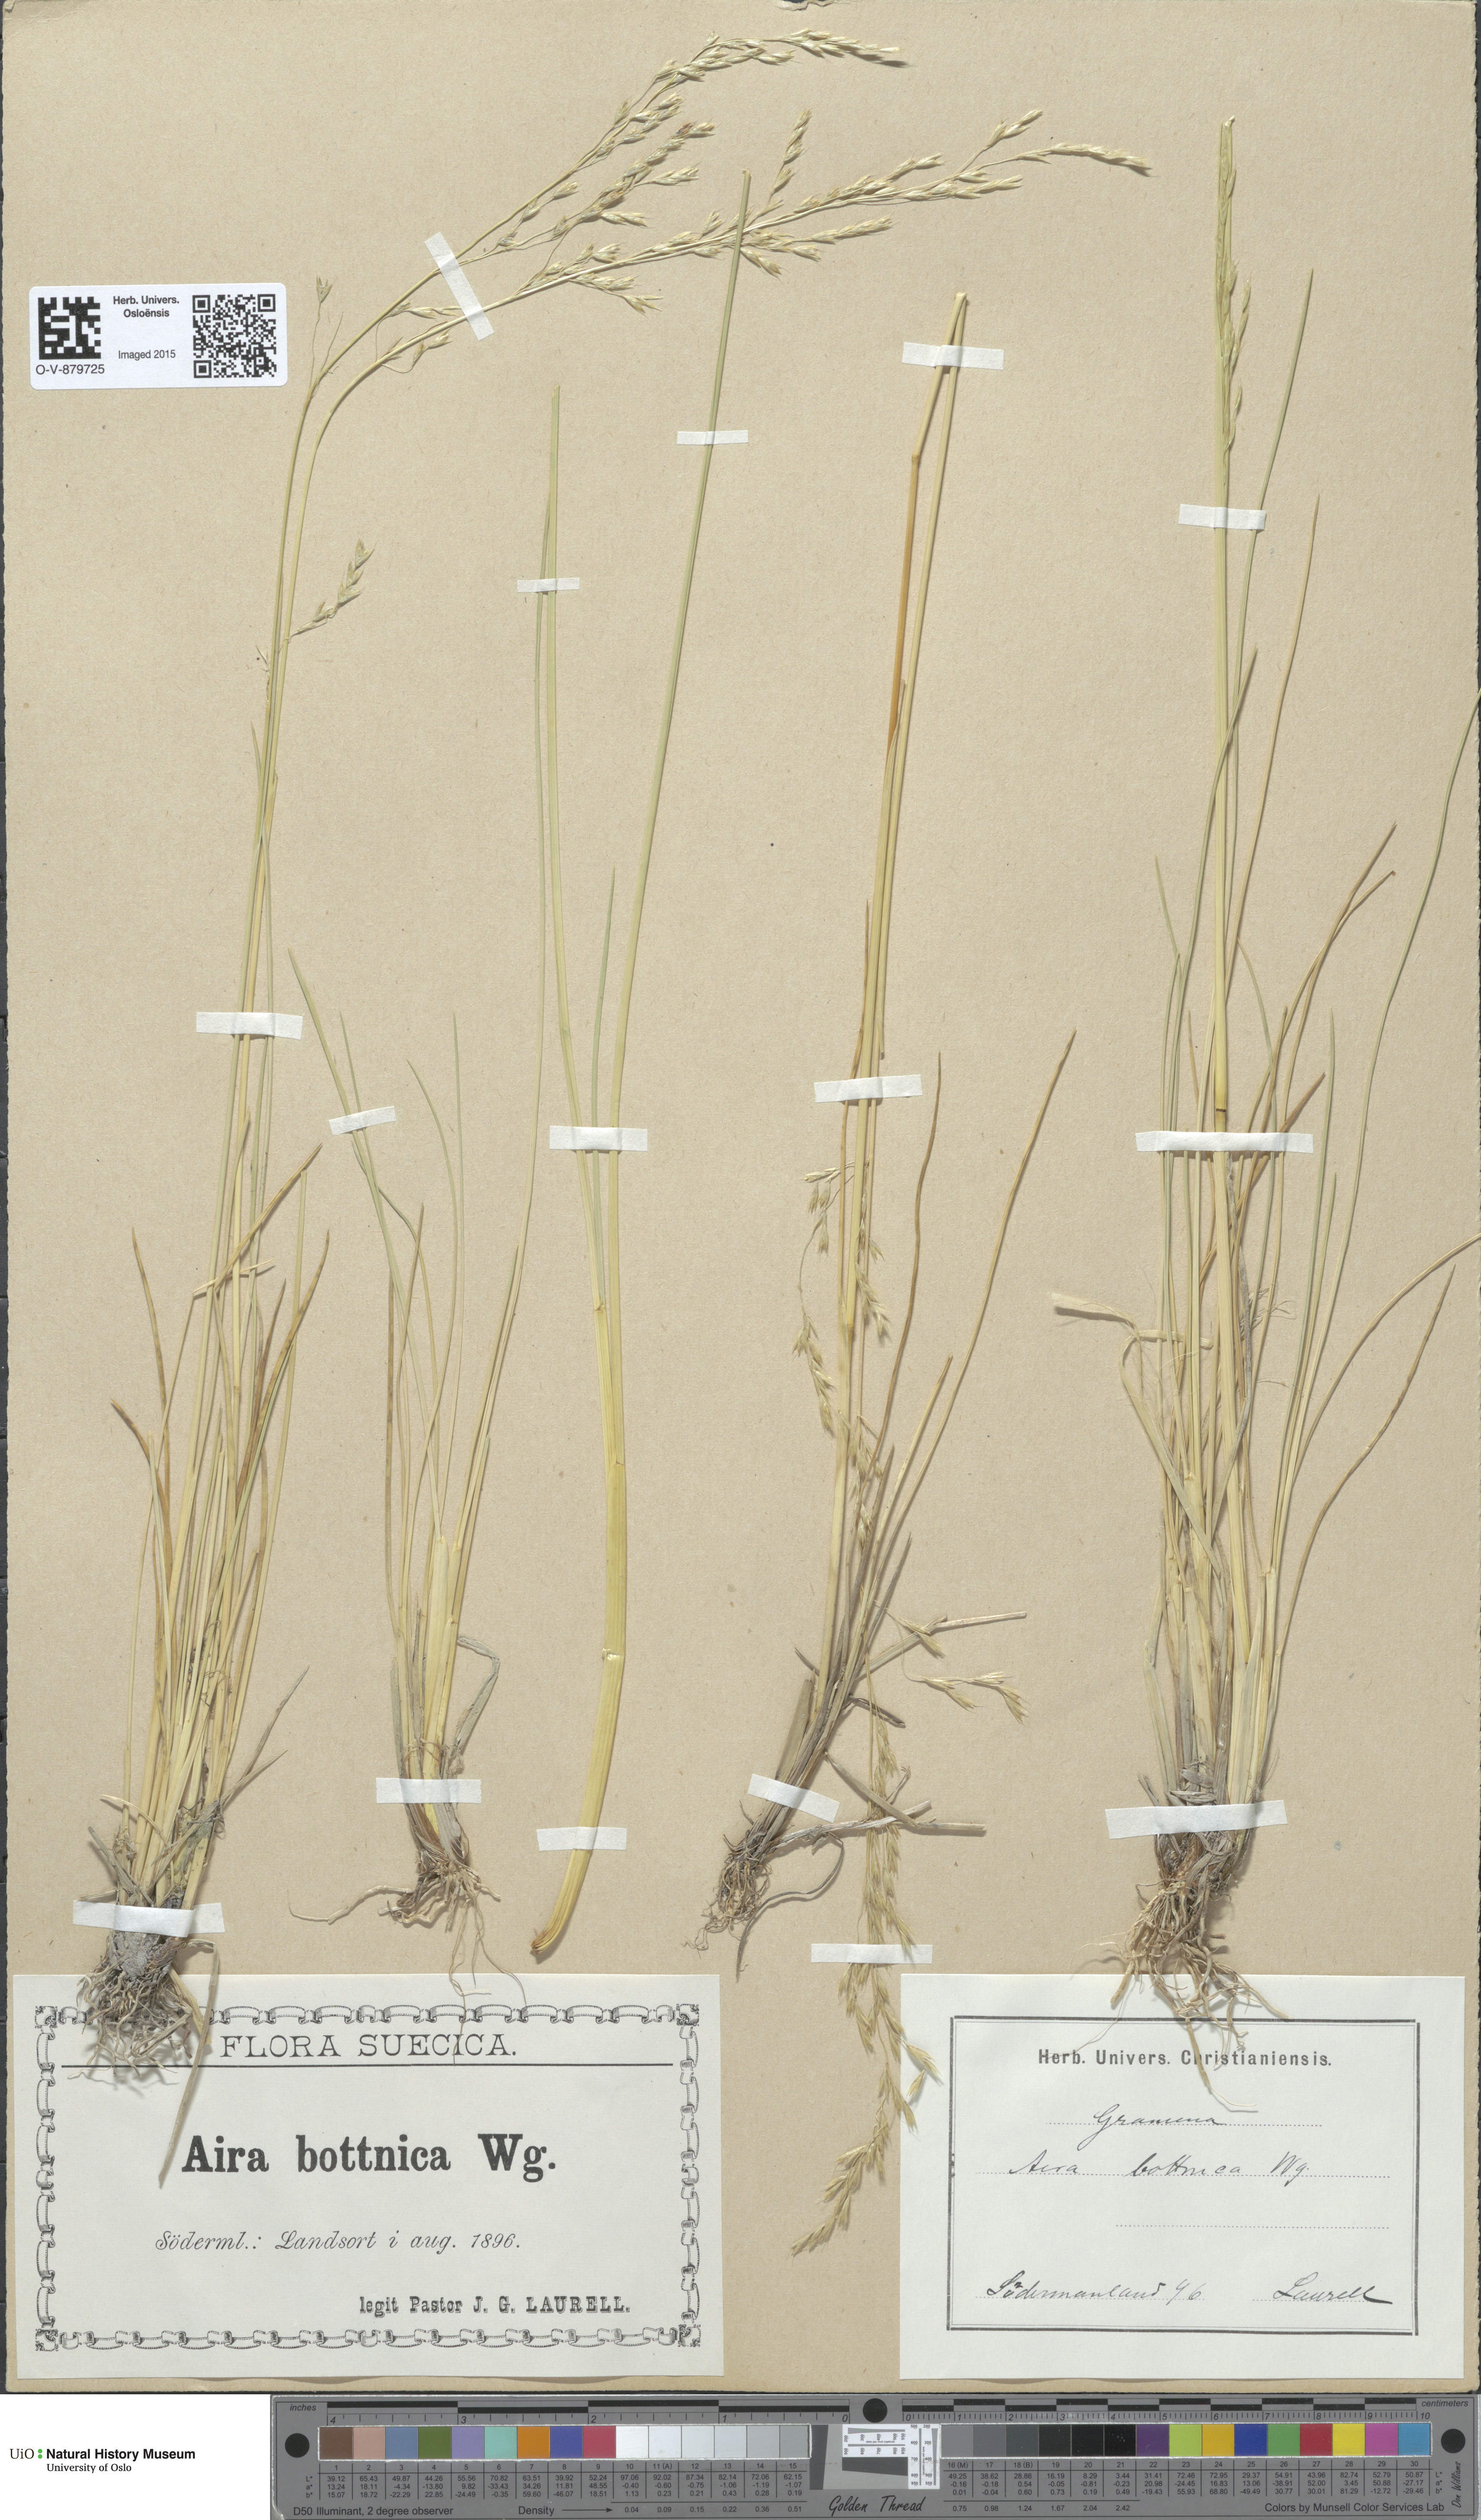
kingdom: Plantae
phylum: Tracheophyta
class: Liliopsida
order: Poales
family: Poaceae
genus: Deschampsia
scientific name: Deschampsia cespitosa
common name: Tufted hair-grass
